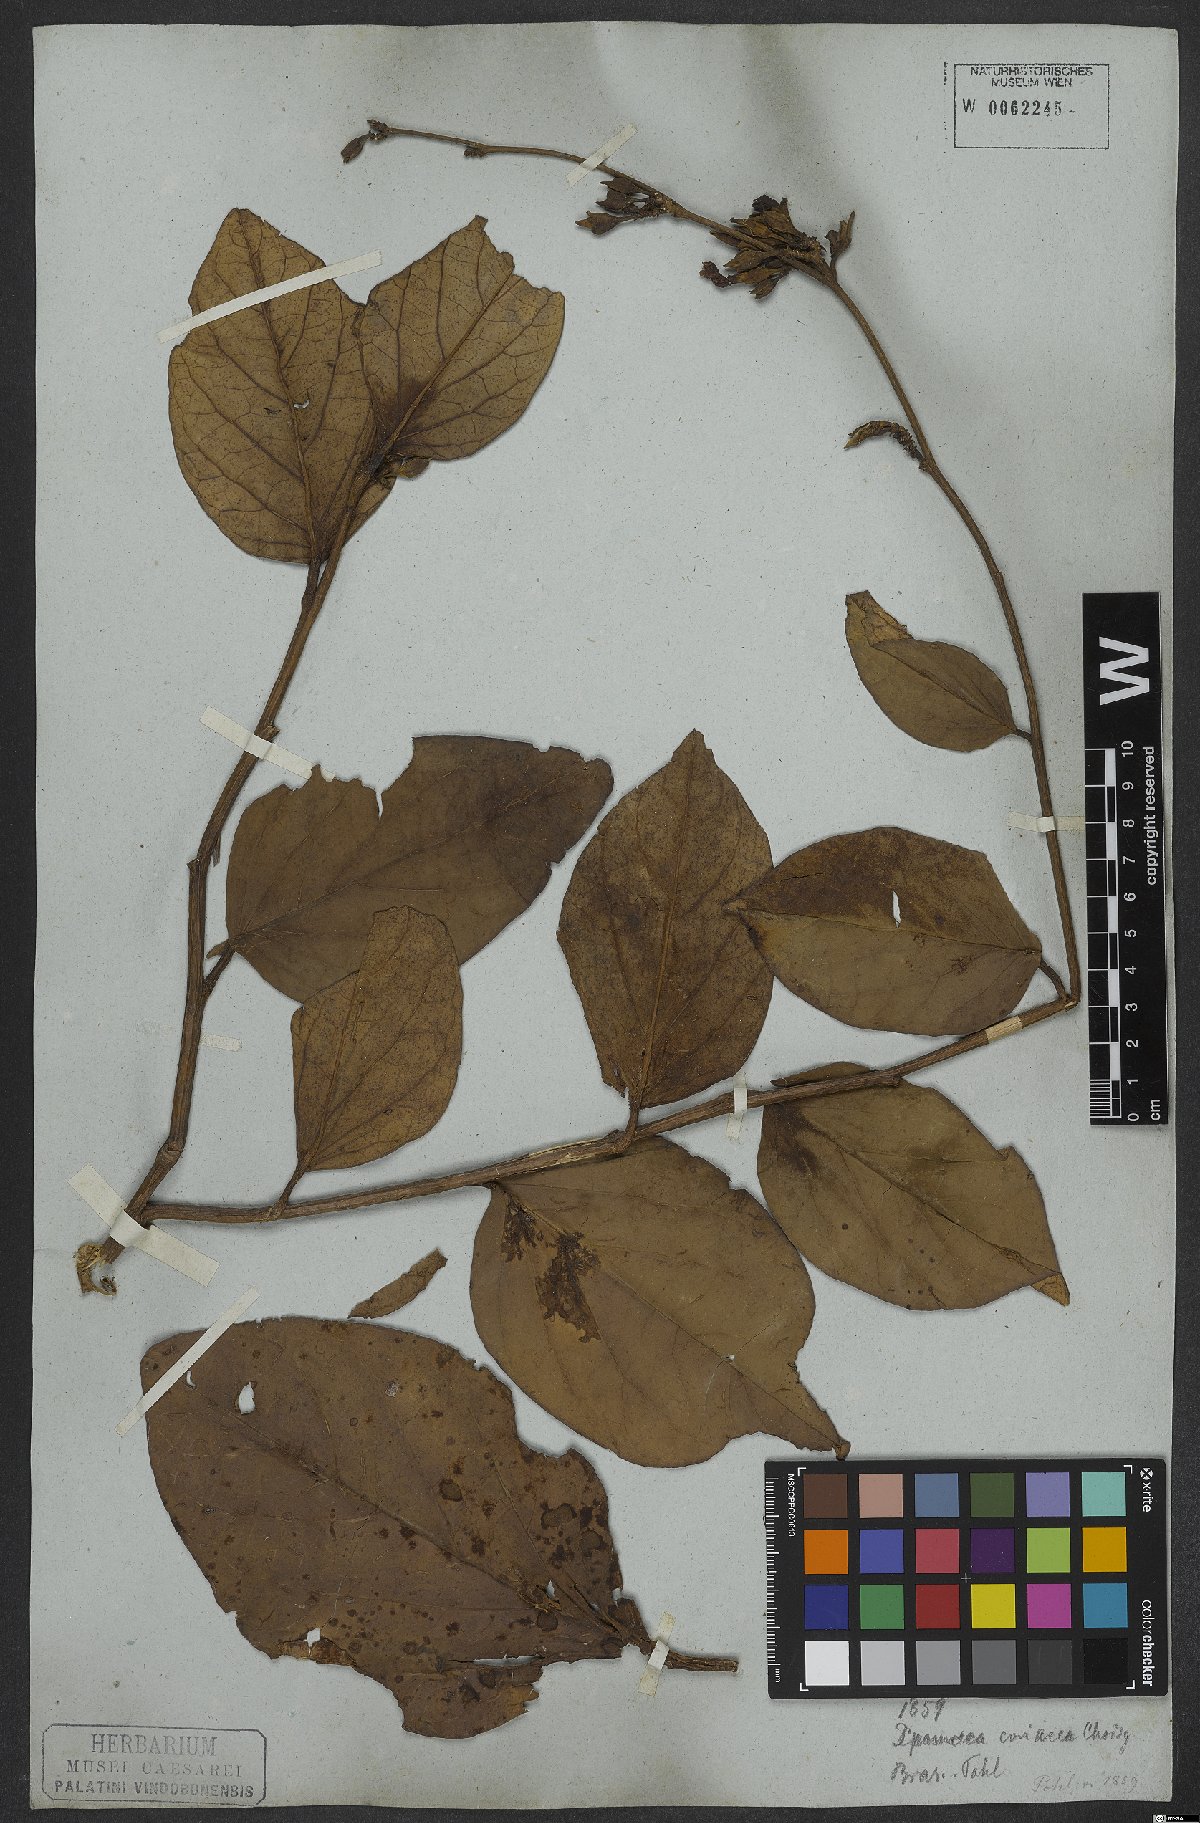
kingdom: Plantae
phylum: Tracheophyta
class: Magnoliopsida
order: Solanales
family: Convolvulaceae
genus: Ipomoea
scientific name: Ipomoea coriacea
